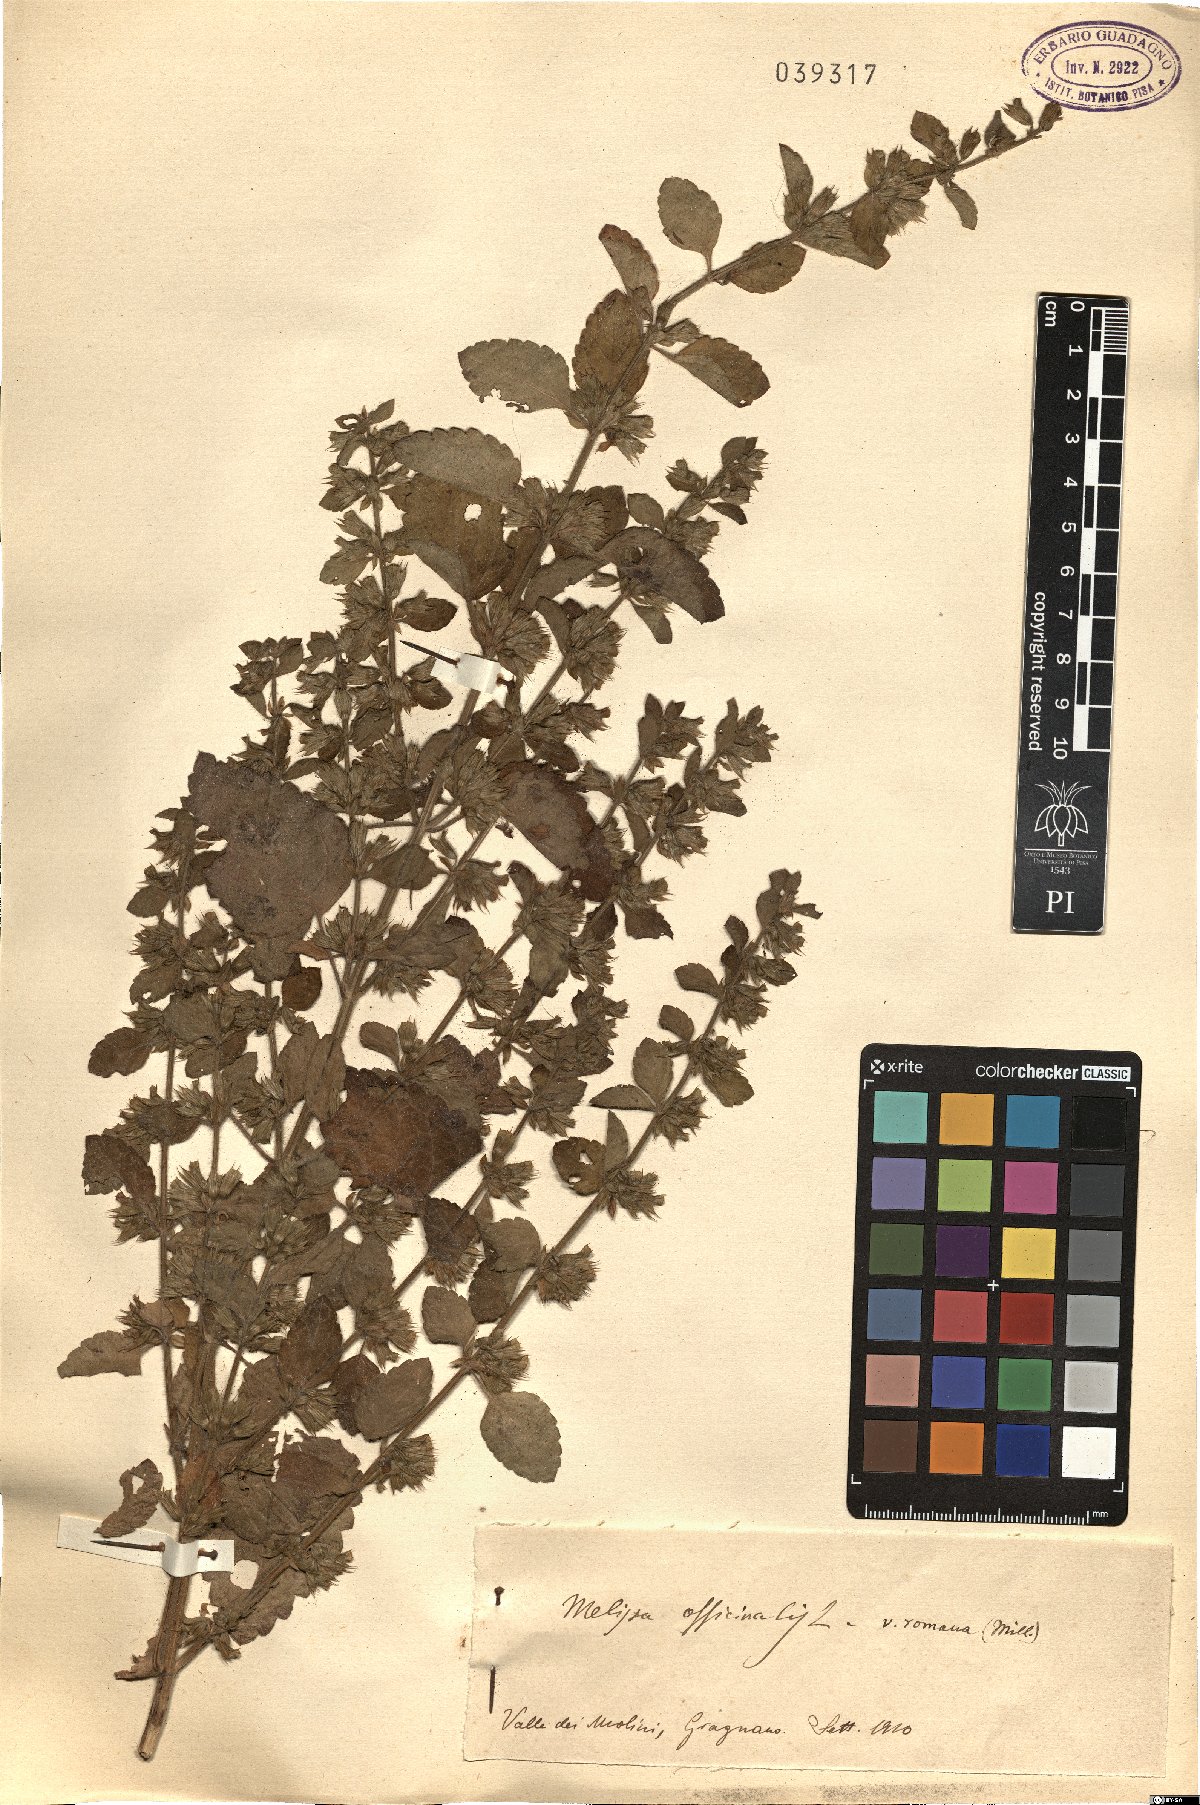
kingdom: Plantae
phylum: Tracheophyta
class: Magnoliopsida
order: Lamiales
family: Lamiaceae
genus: Melissa
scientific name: Melissa officinalis
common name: Balm
